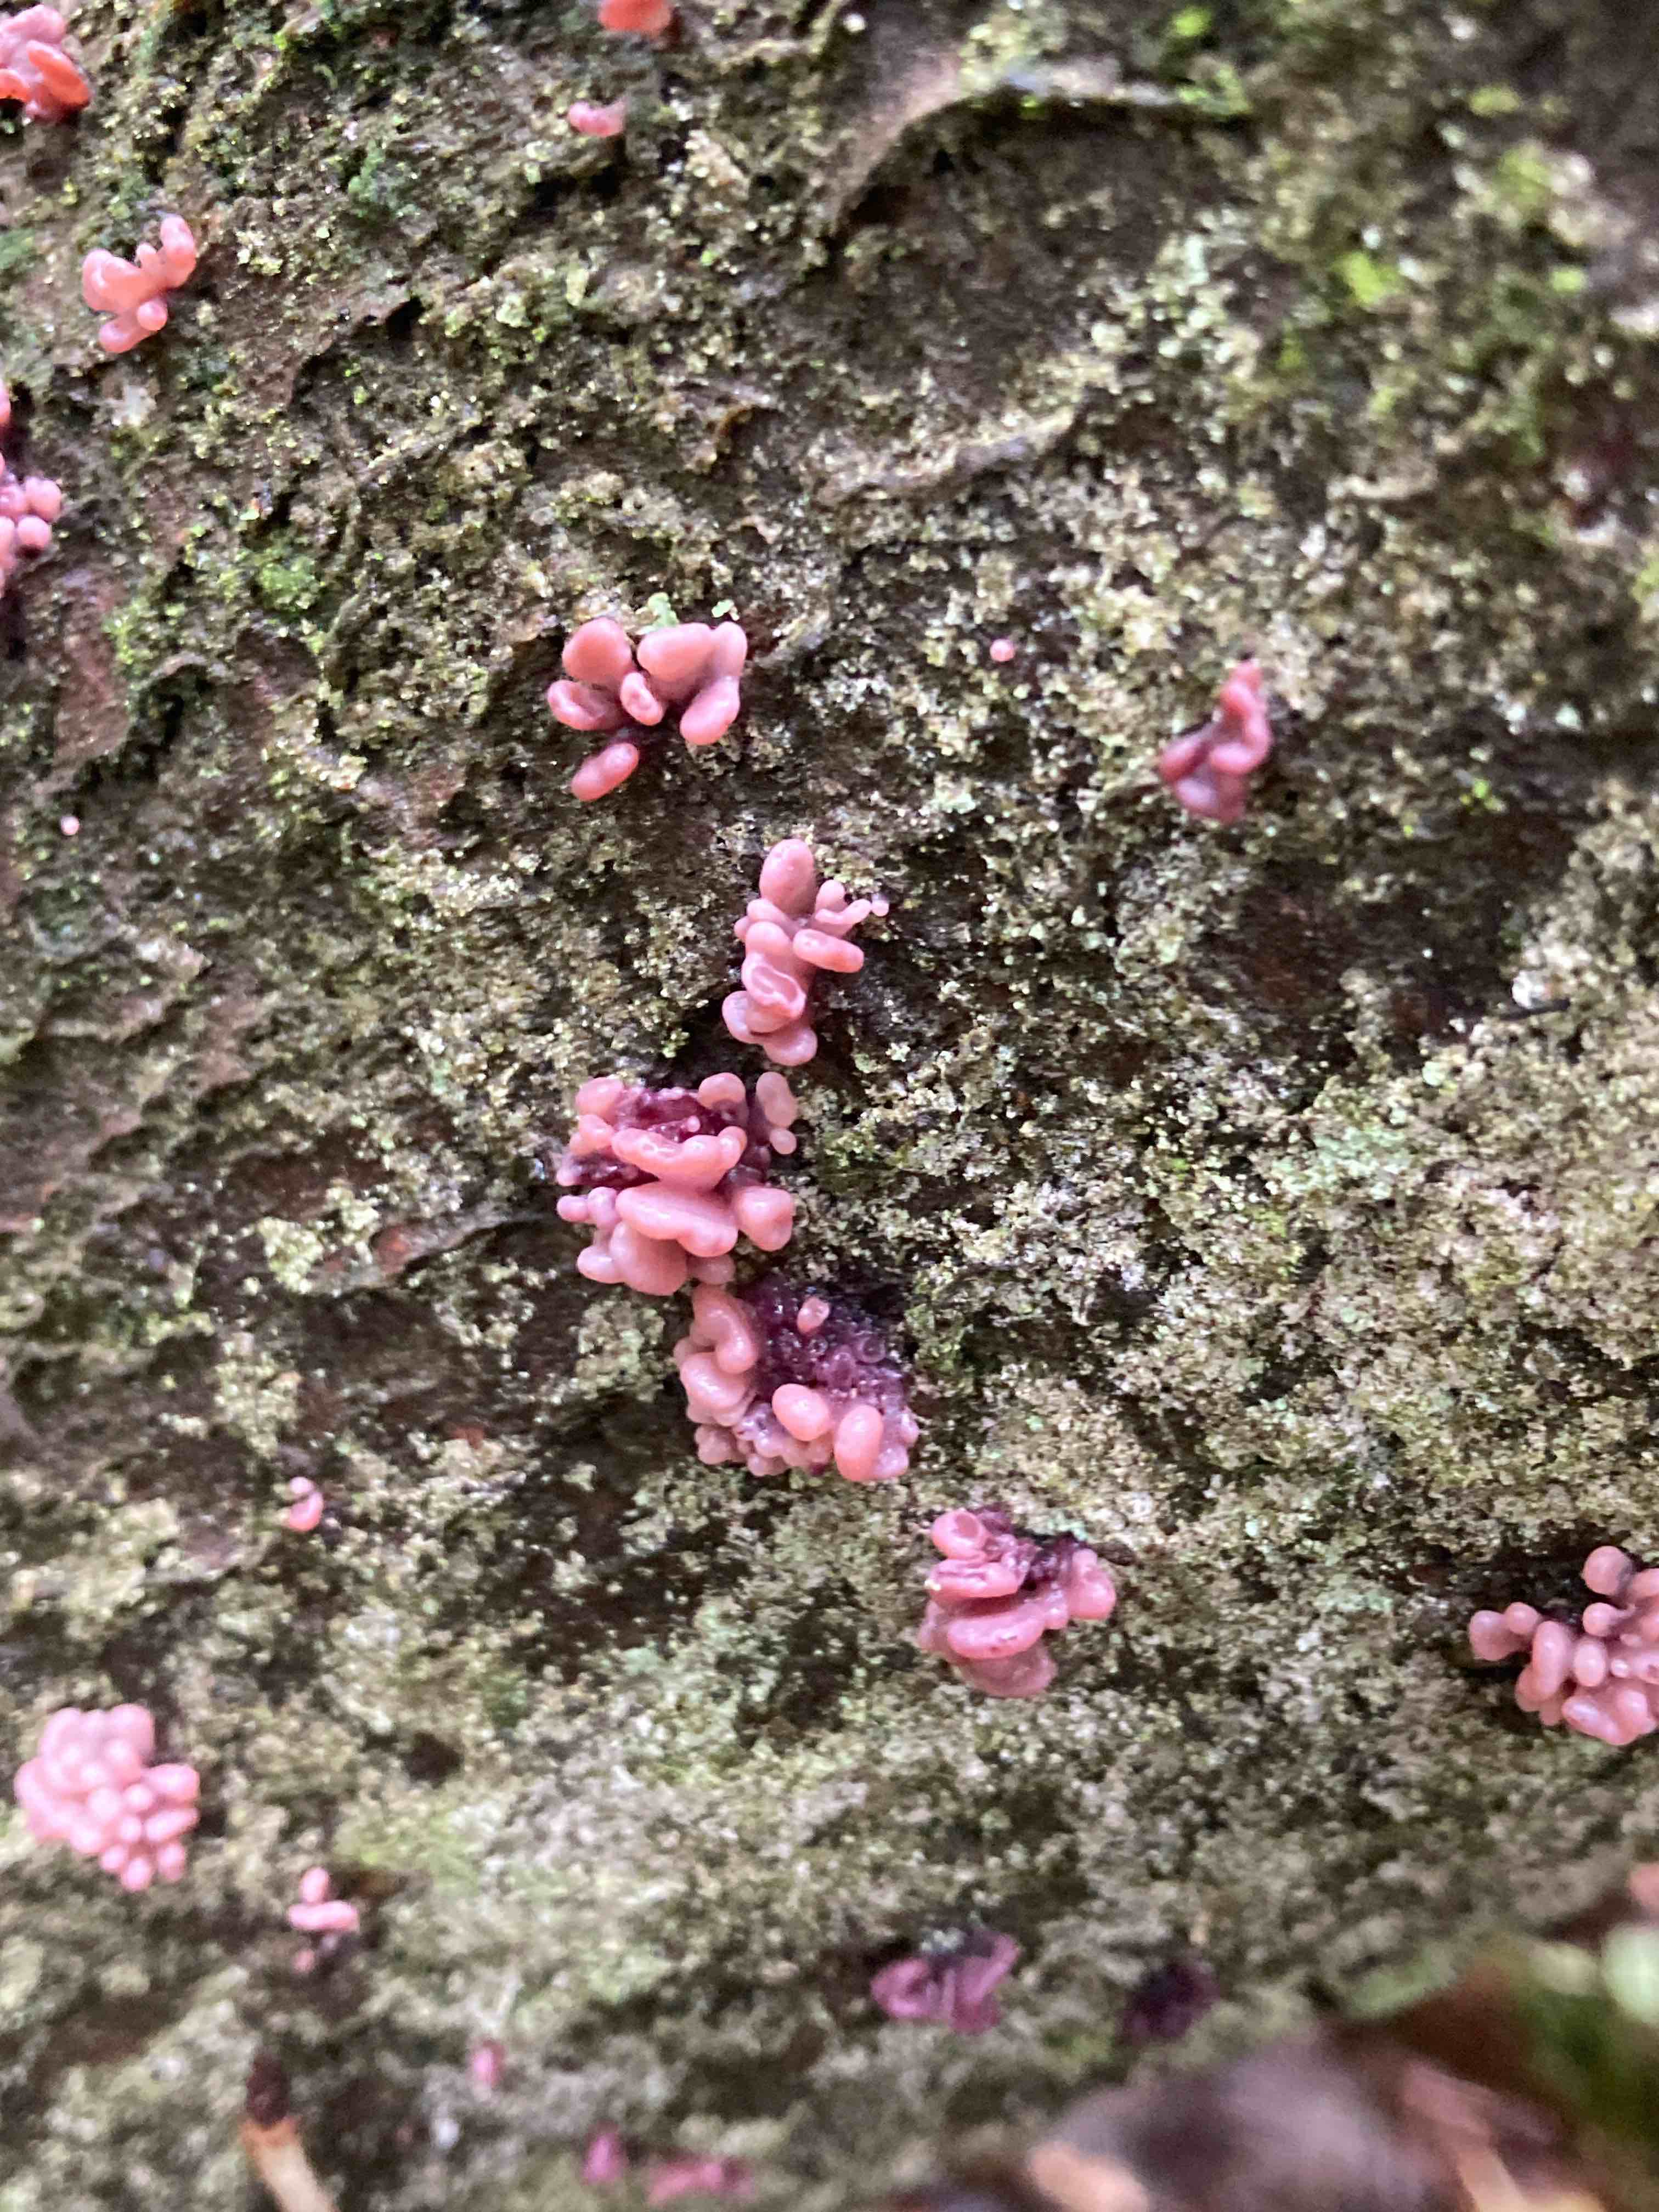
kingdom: Fungi
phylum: Ascomycota
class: Leotiomycetes
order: Helotiales
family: Gelatinodiscaceae
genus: Ascocoryne
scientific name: Ascocoryne sarcoides
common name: rødlilla sejskive
